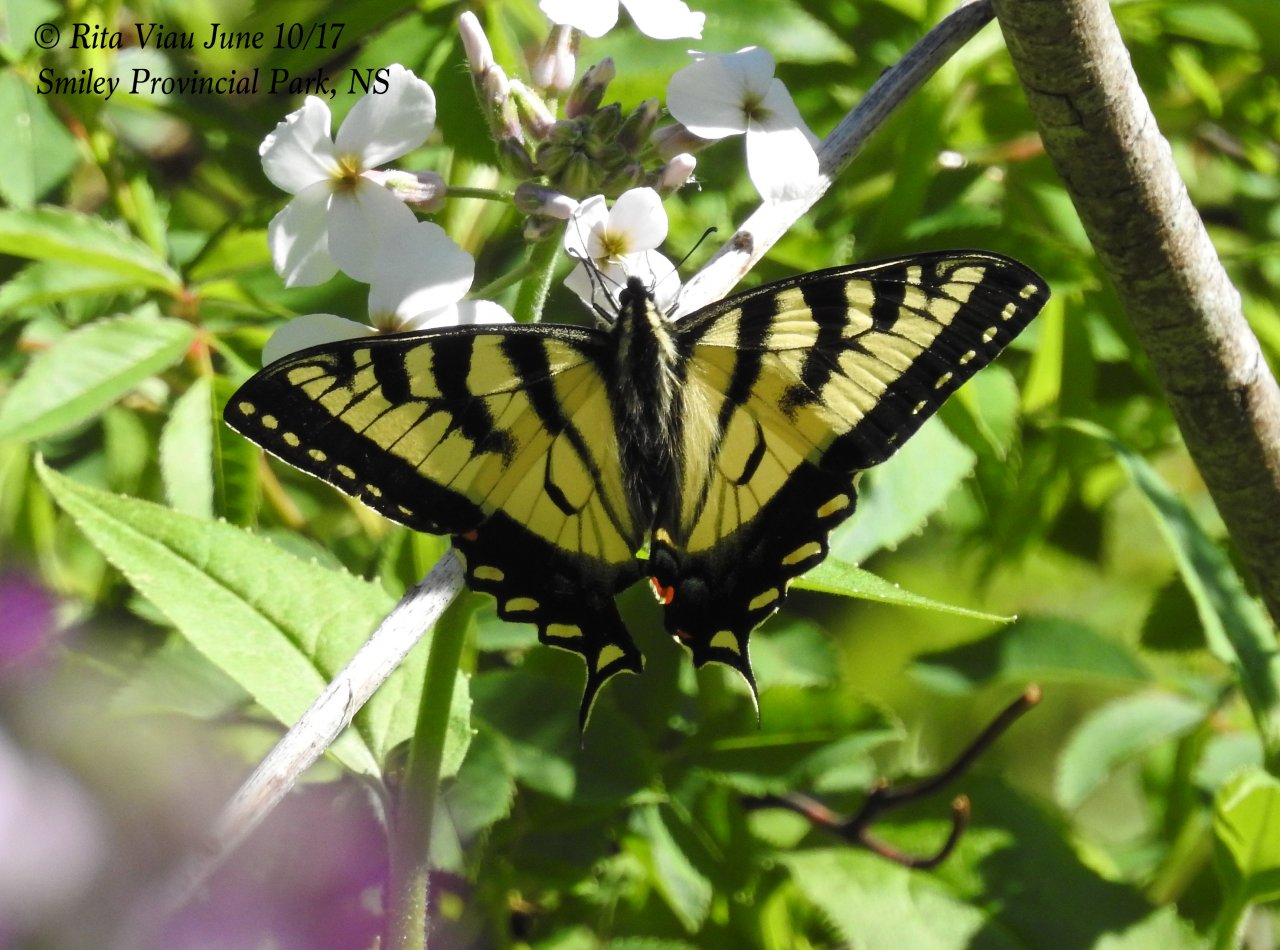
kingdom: Animalia
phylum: Arthropoda
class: Insecta
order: Lepidoptera
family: Papilionidae
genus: Pterourus
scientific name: Pterourus canadensis
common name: Canadian Tiger Swallowtail
